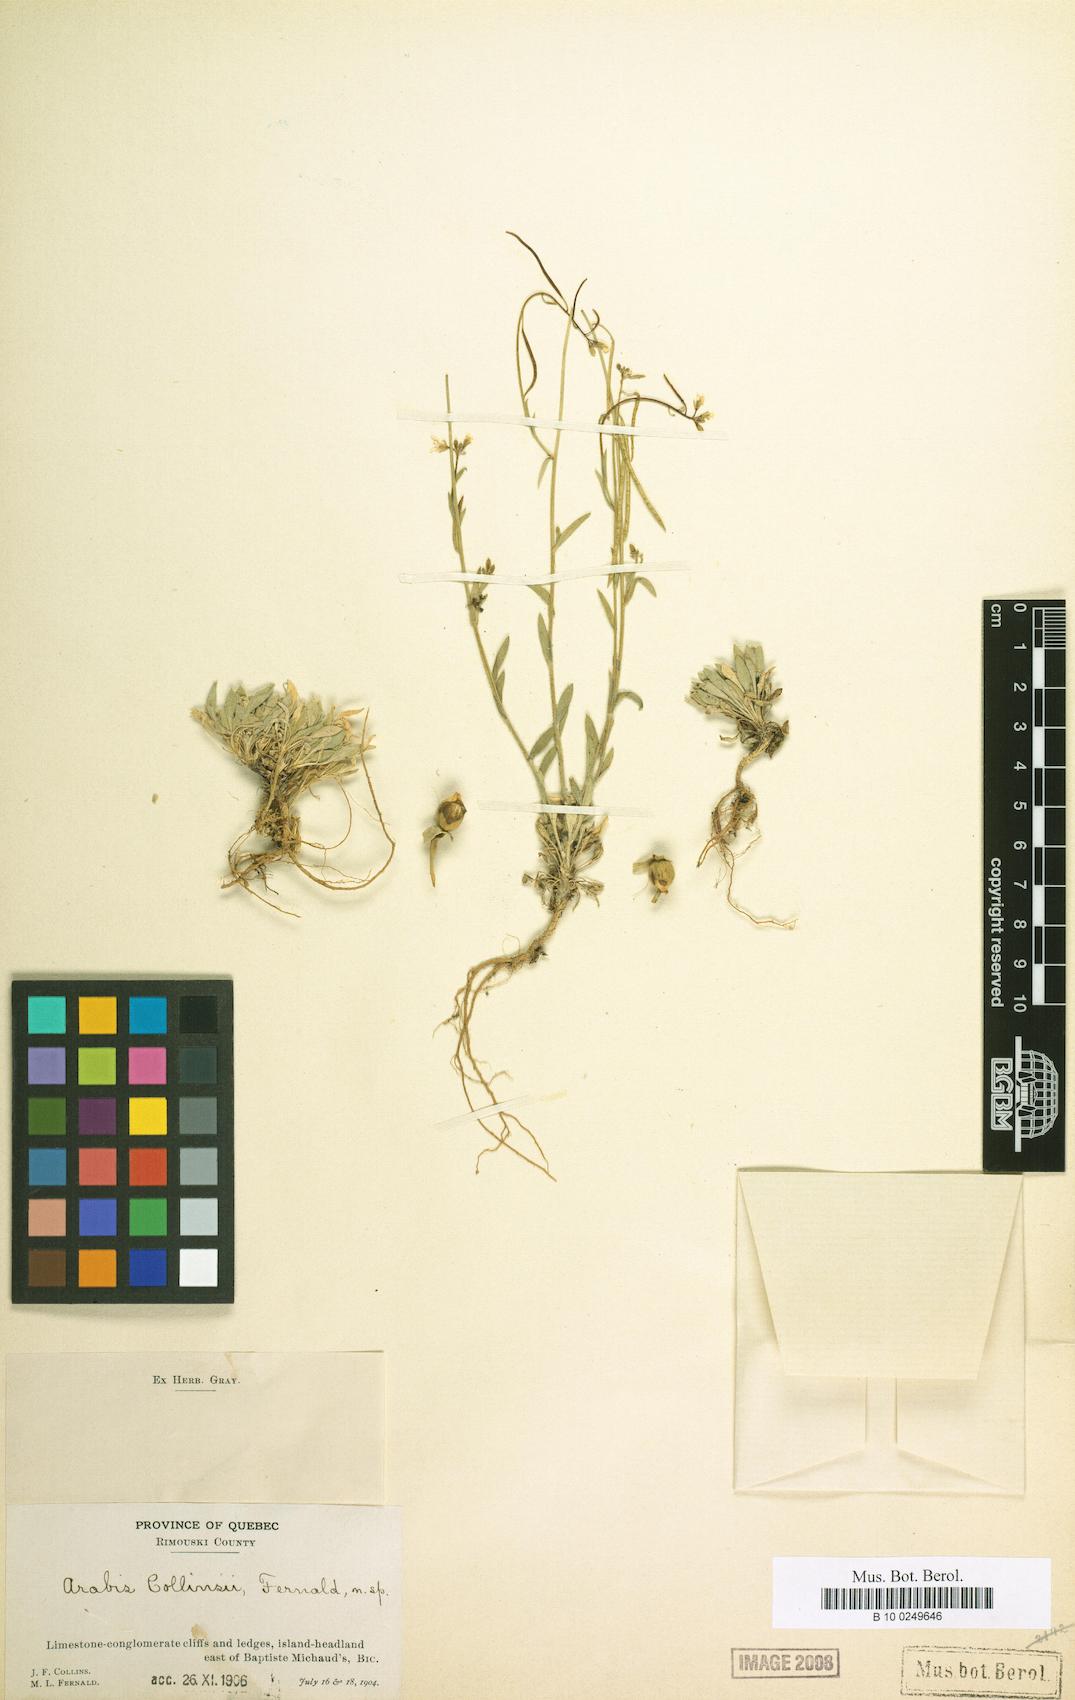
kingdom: Plantae
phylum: Tracheophyta
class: Magnoliopsida
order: Brassicales
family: Brassicaceae
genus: Boechera
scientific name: Boechera collinsii
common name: Collins' rockcress
